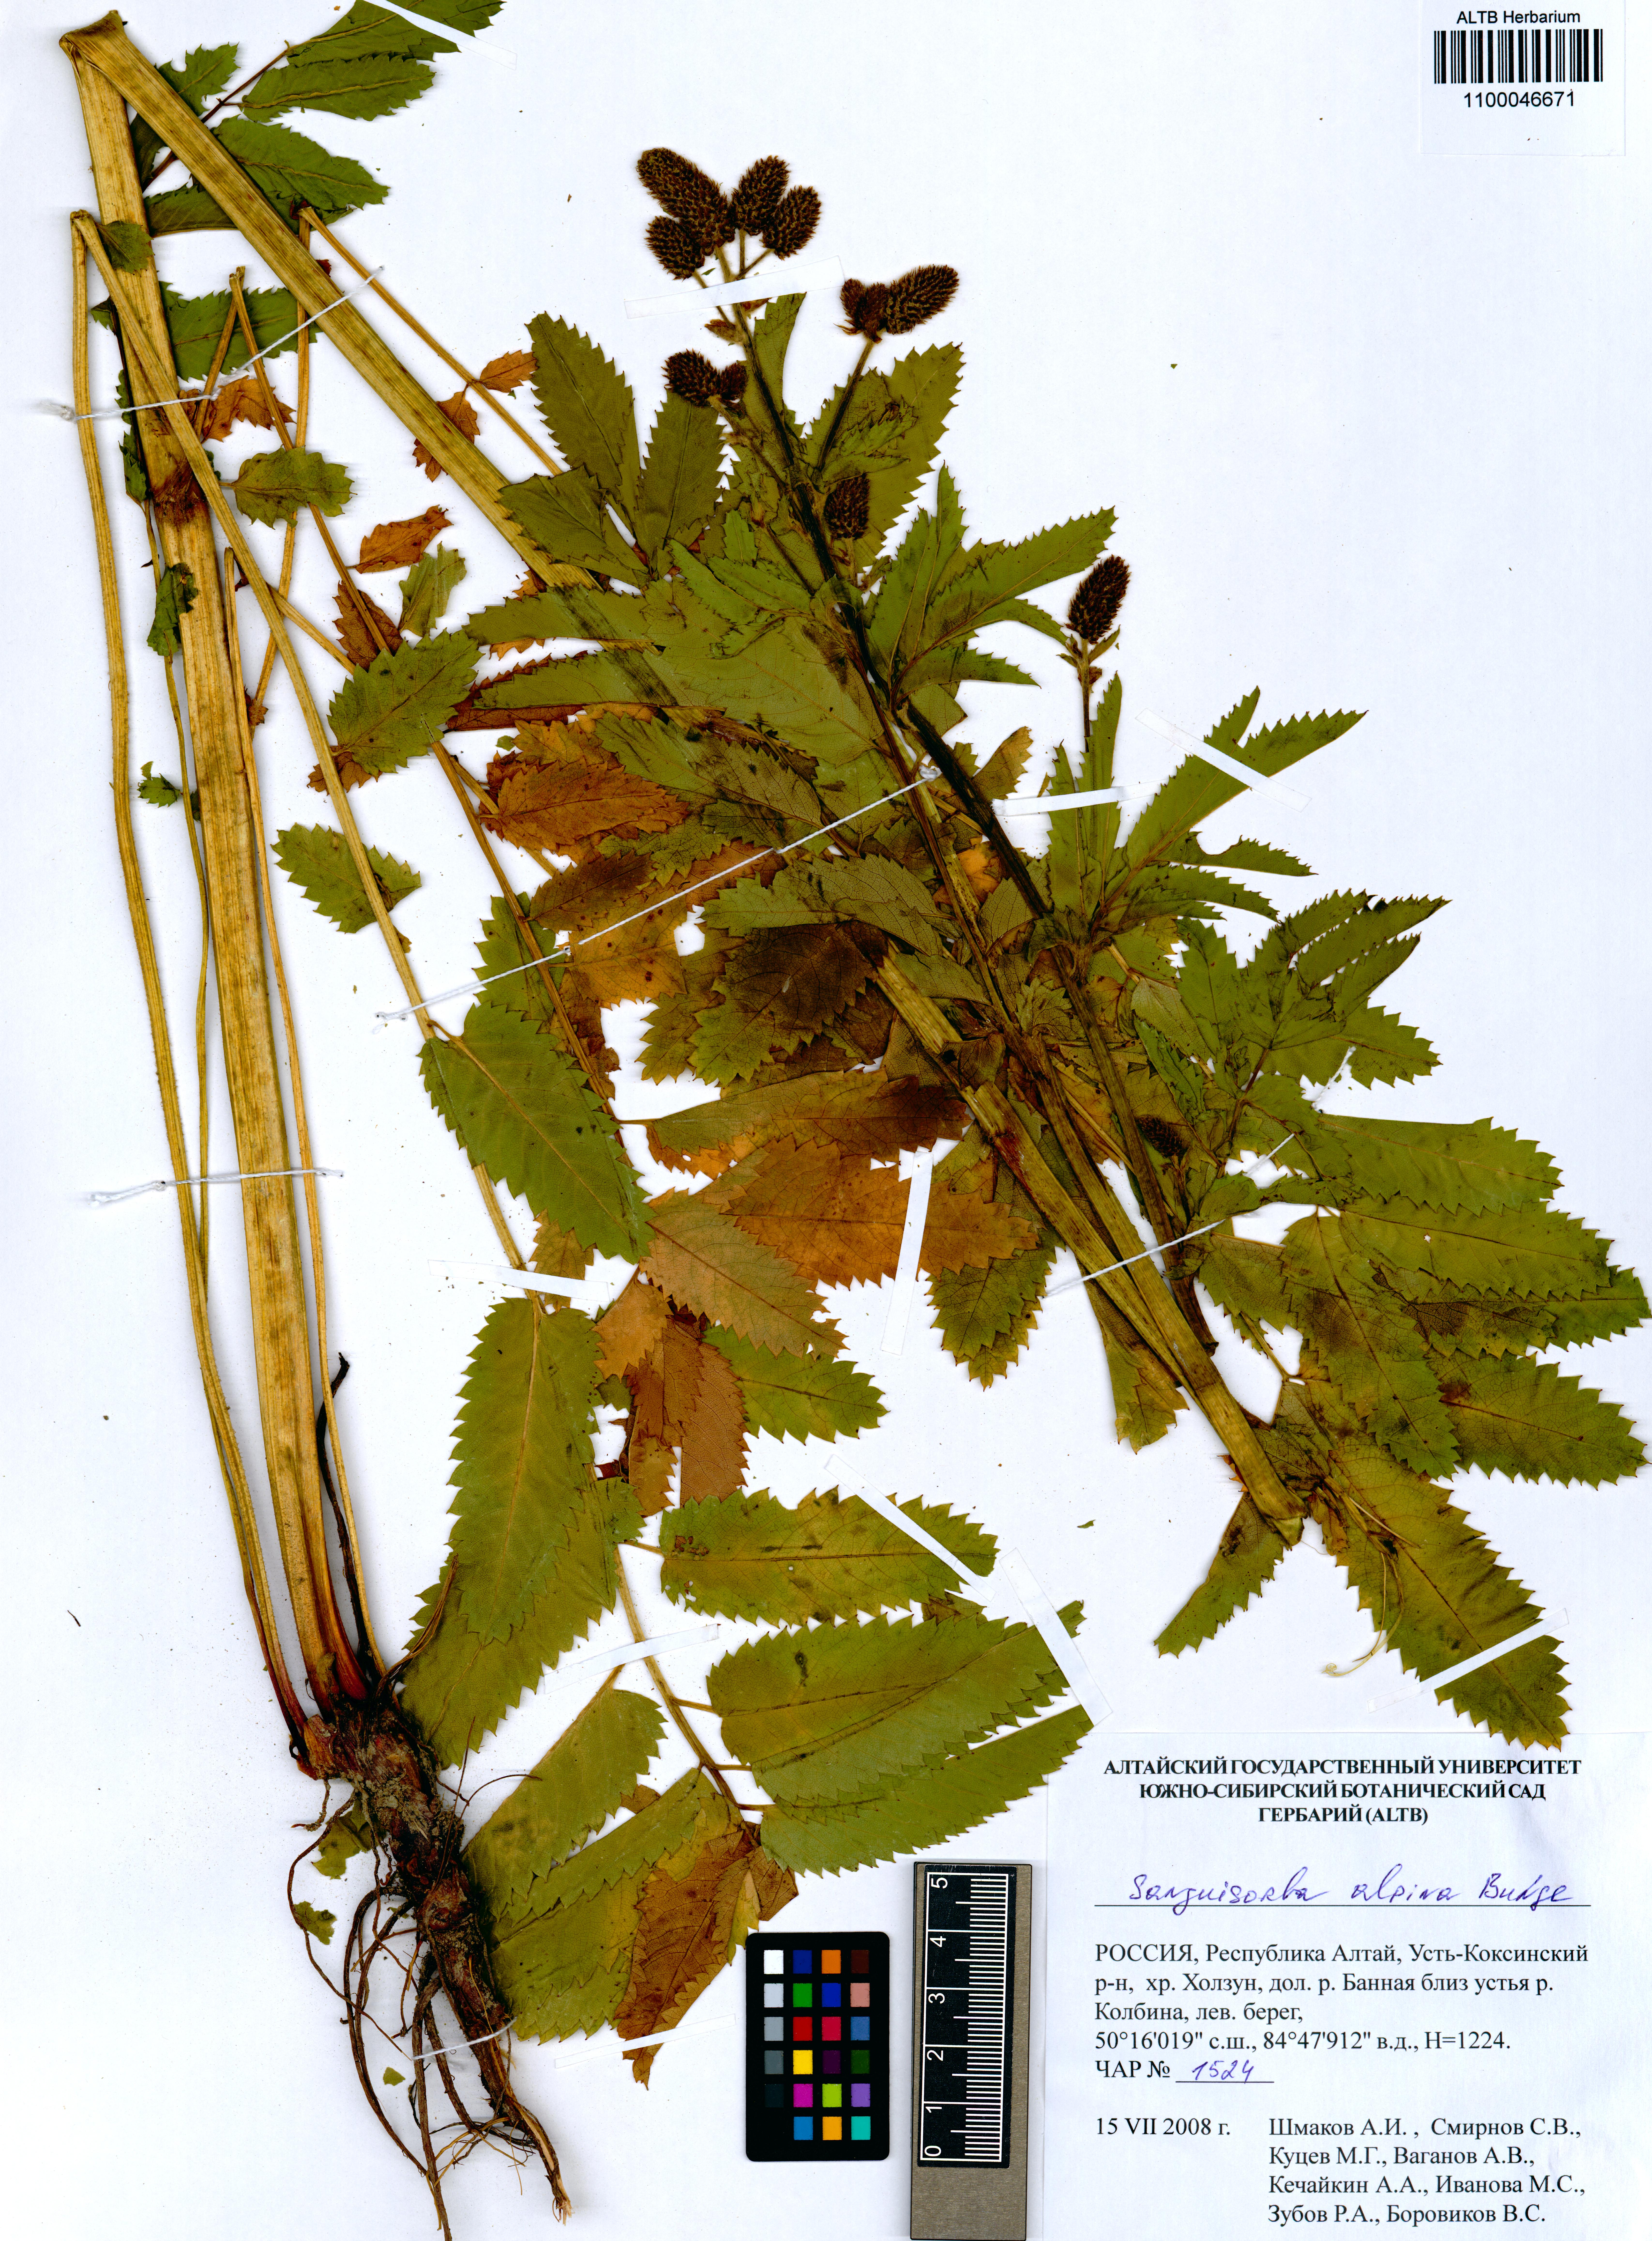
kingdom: Plantae
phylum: Tracheophyta
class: Magnoliopsida
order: Rosales
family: Rosaceae
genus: Sanguisorba
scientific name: Sanguisorba alpina
